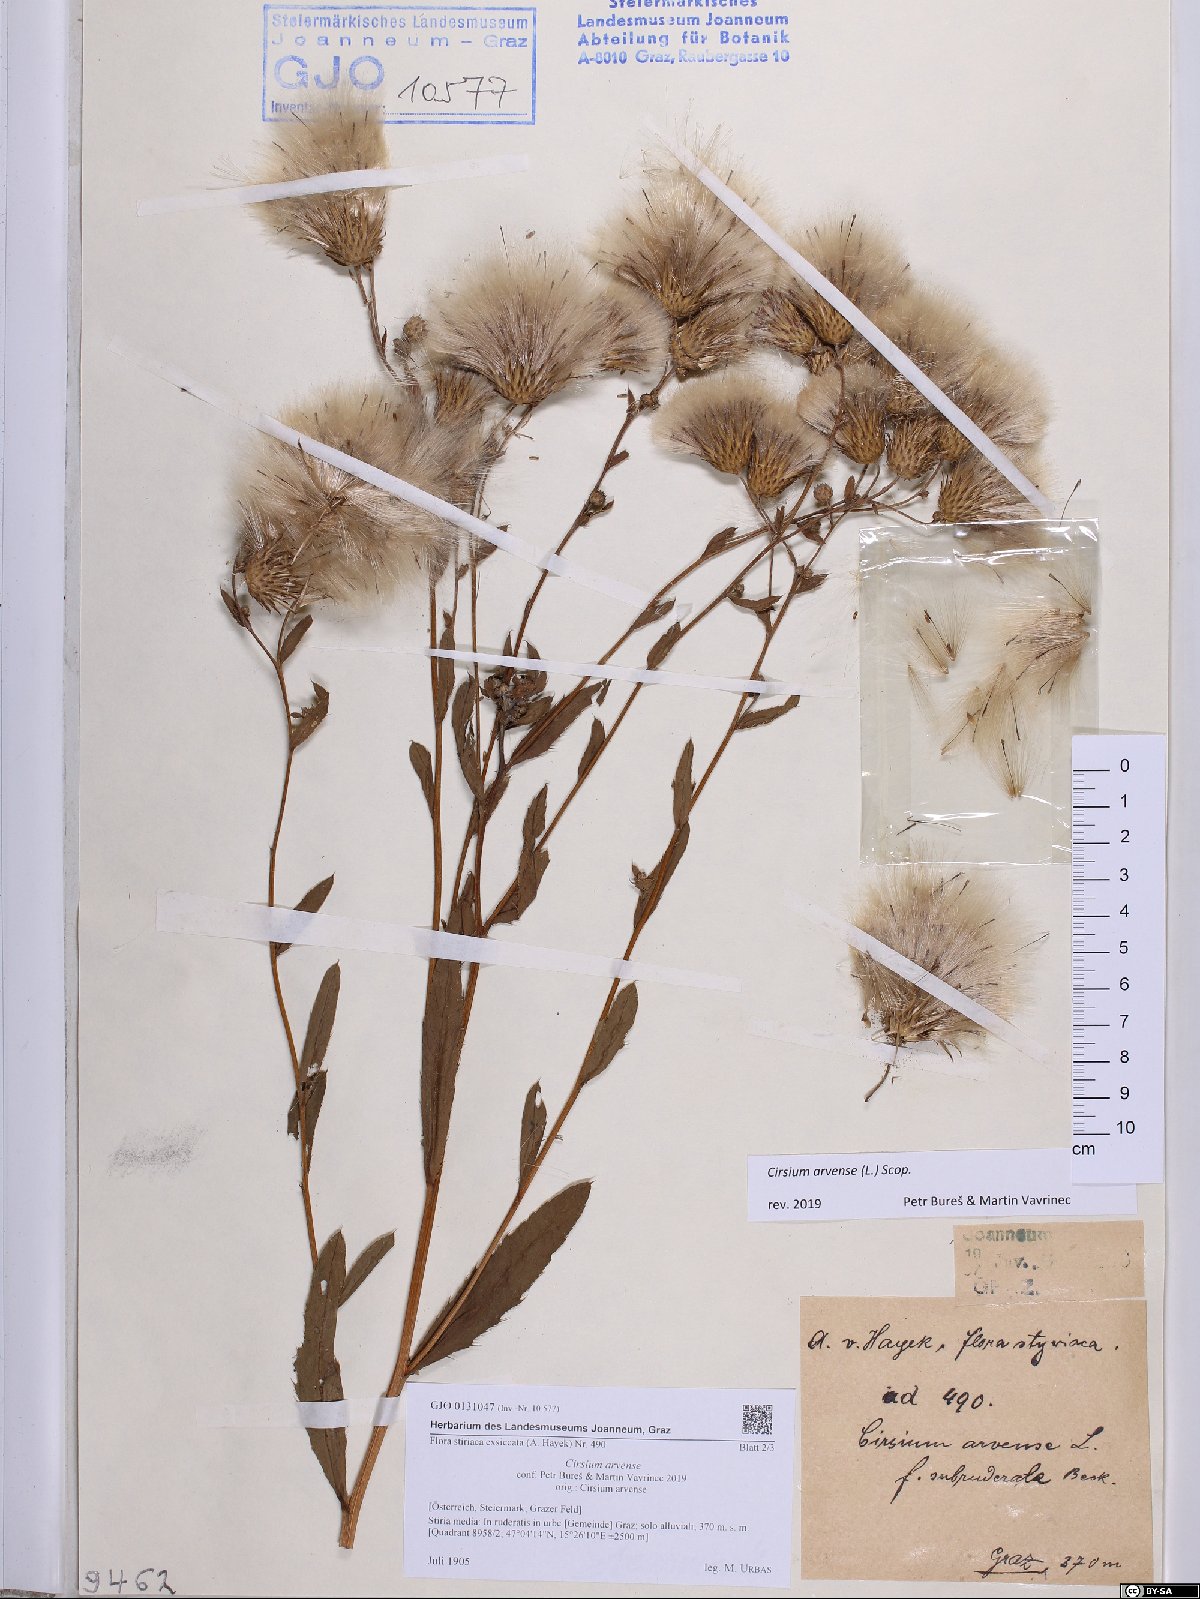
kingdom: Plantae
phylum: Tracheophyta
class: Magnoliopsida
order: Asterales
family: Asteraceae
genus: Cirsium
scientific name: Cirsium arvense
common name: Creeping thistle
